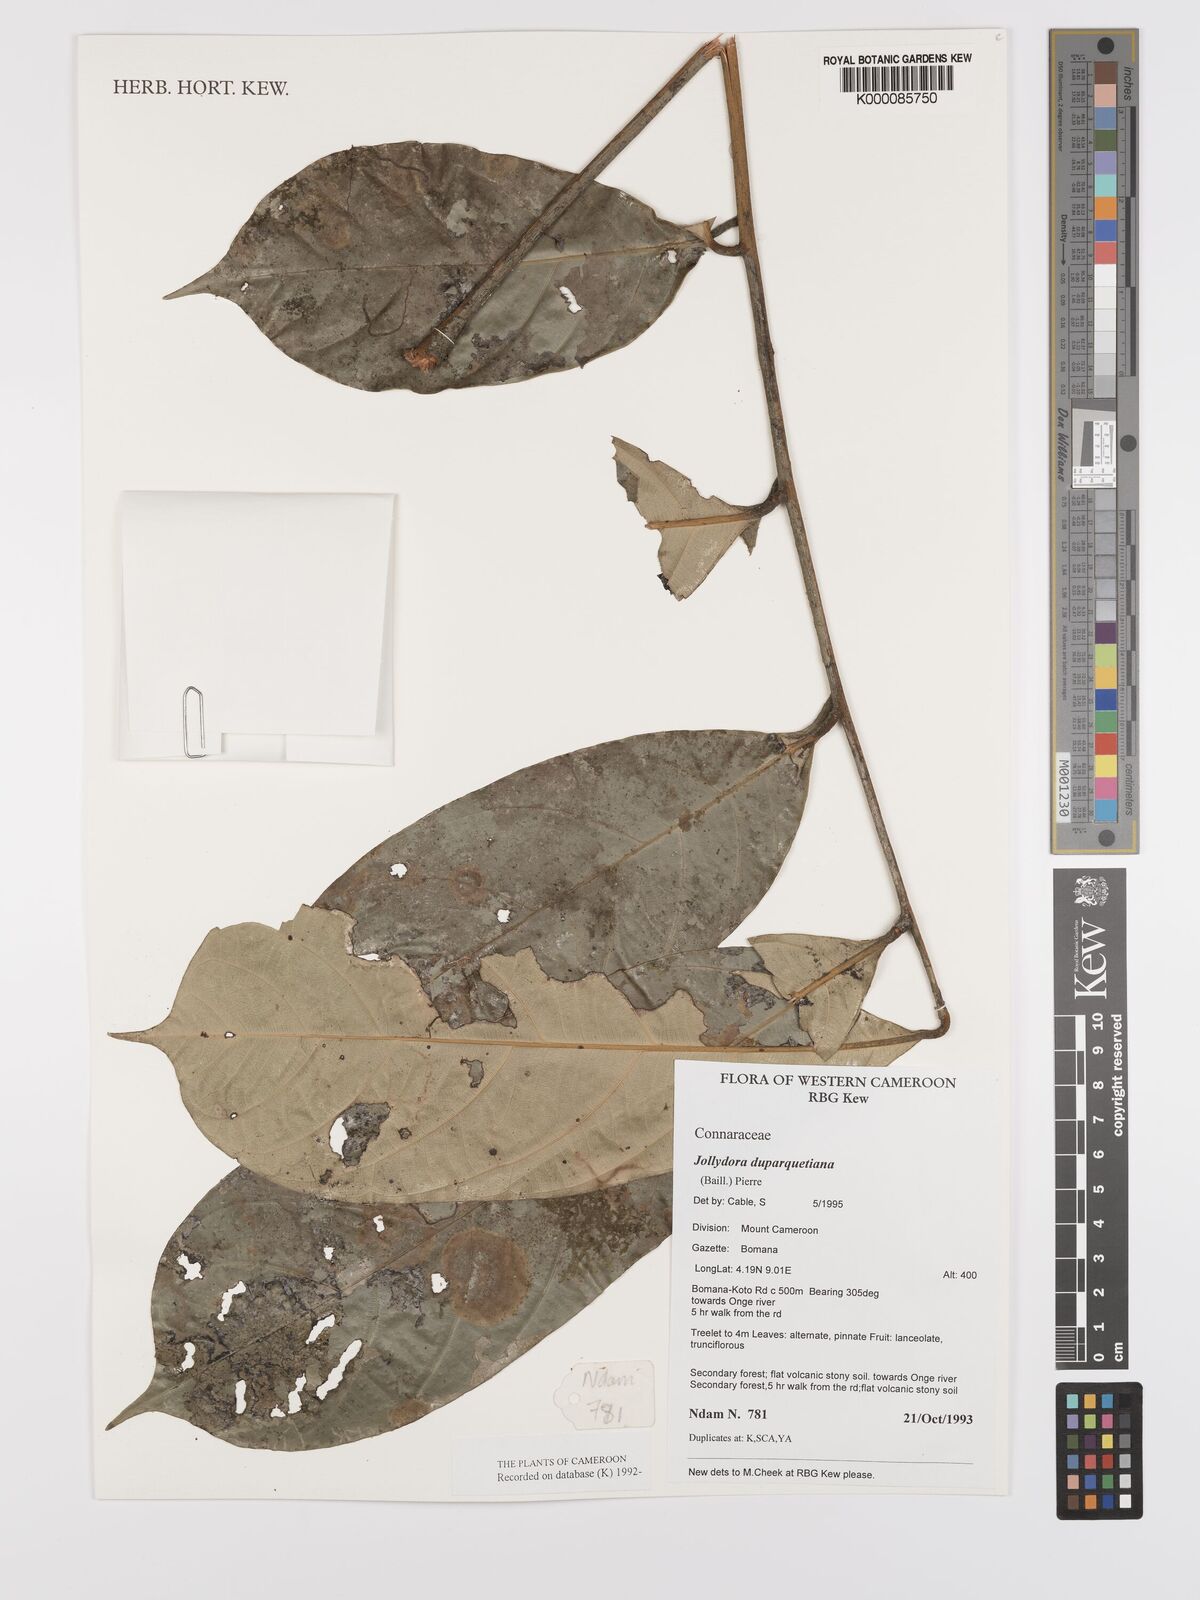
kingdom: Plantae
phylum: Tracheophyta
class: Magnoliopsida
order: Oxalidales
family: Connaraceae
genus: Jollydora
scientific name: Jollydora duparquetiana
